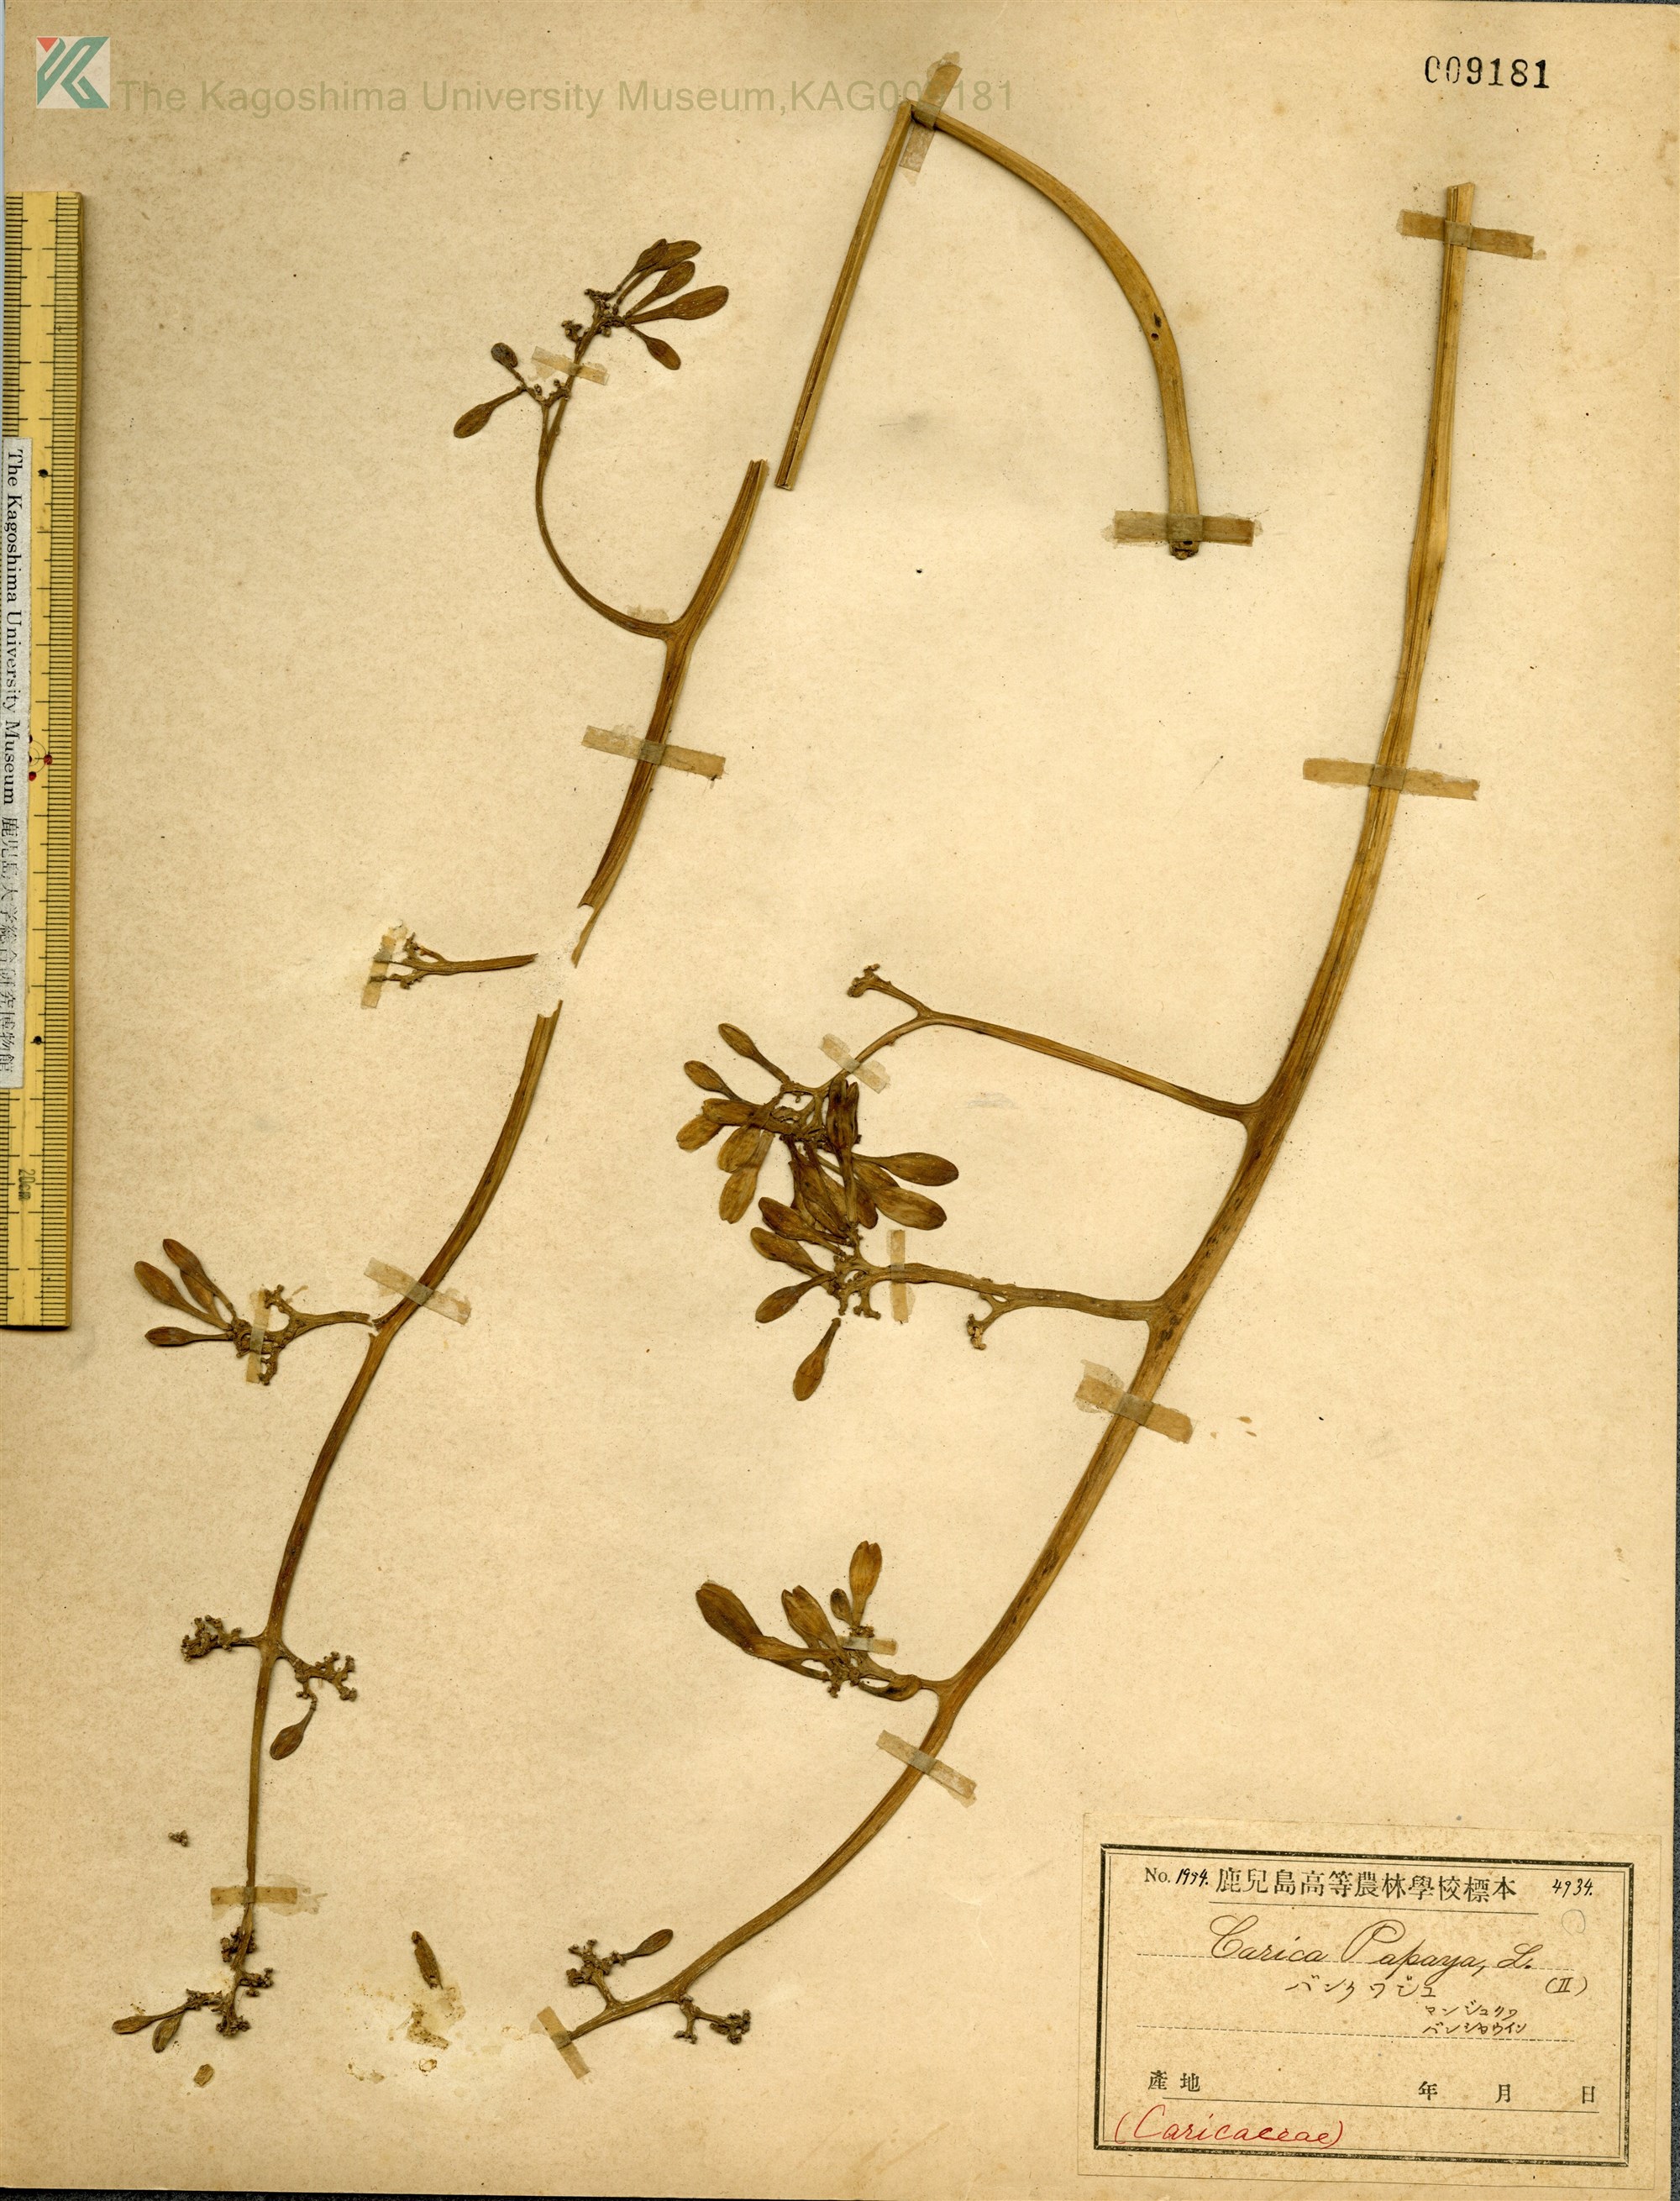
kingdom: Plantae
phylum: Tracheophyta
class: Magnoliopsida
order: Brassicales
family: Caricaceae
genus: Carica
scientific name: Carica papaya
